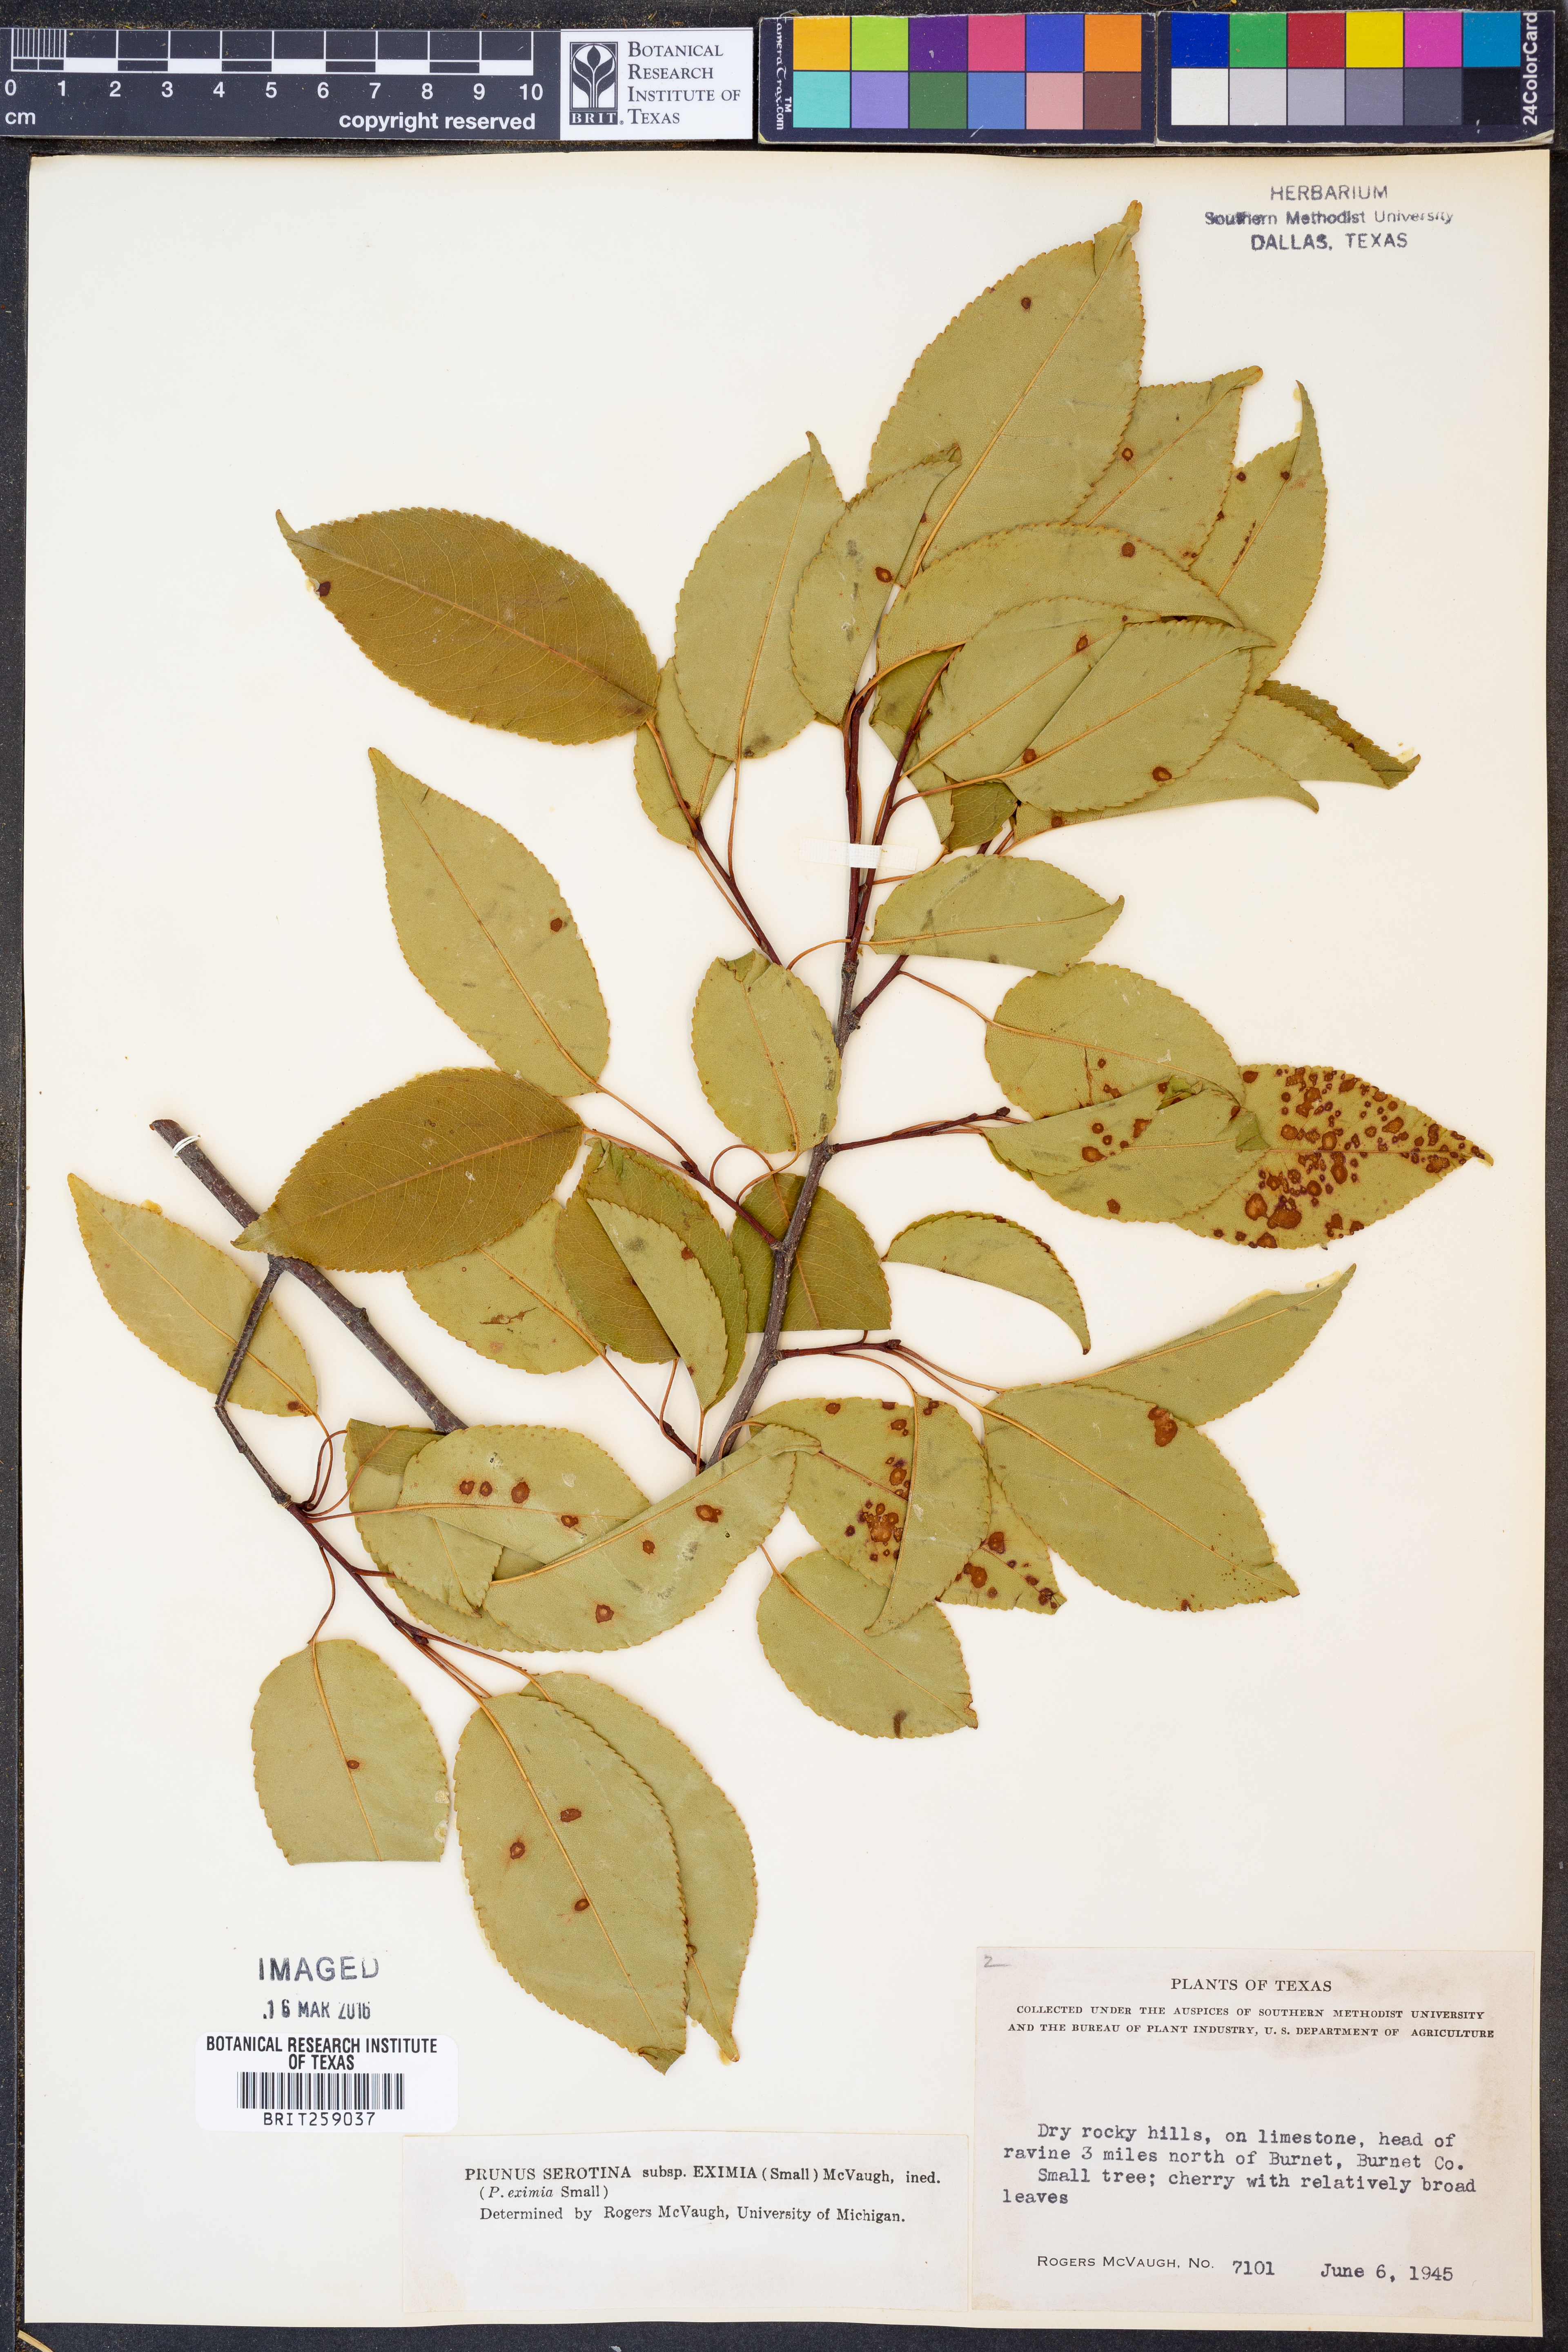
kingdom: Plantae
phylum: Tracheophyta
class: Magnoliopsida
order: Rosales
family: Rosaceae
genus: Prunus
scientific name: Prunus serotina
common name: Black cherry
